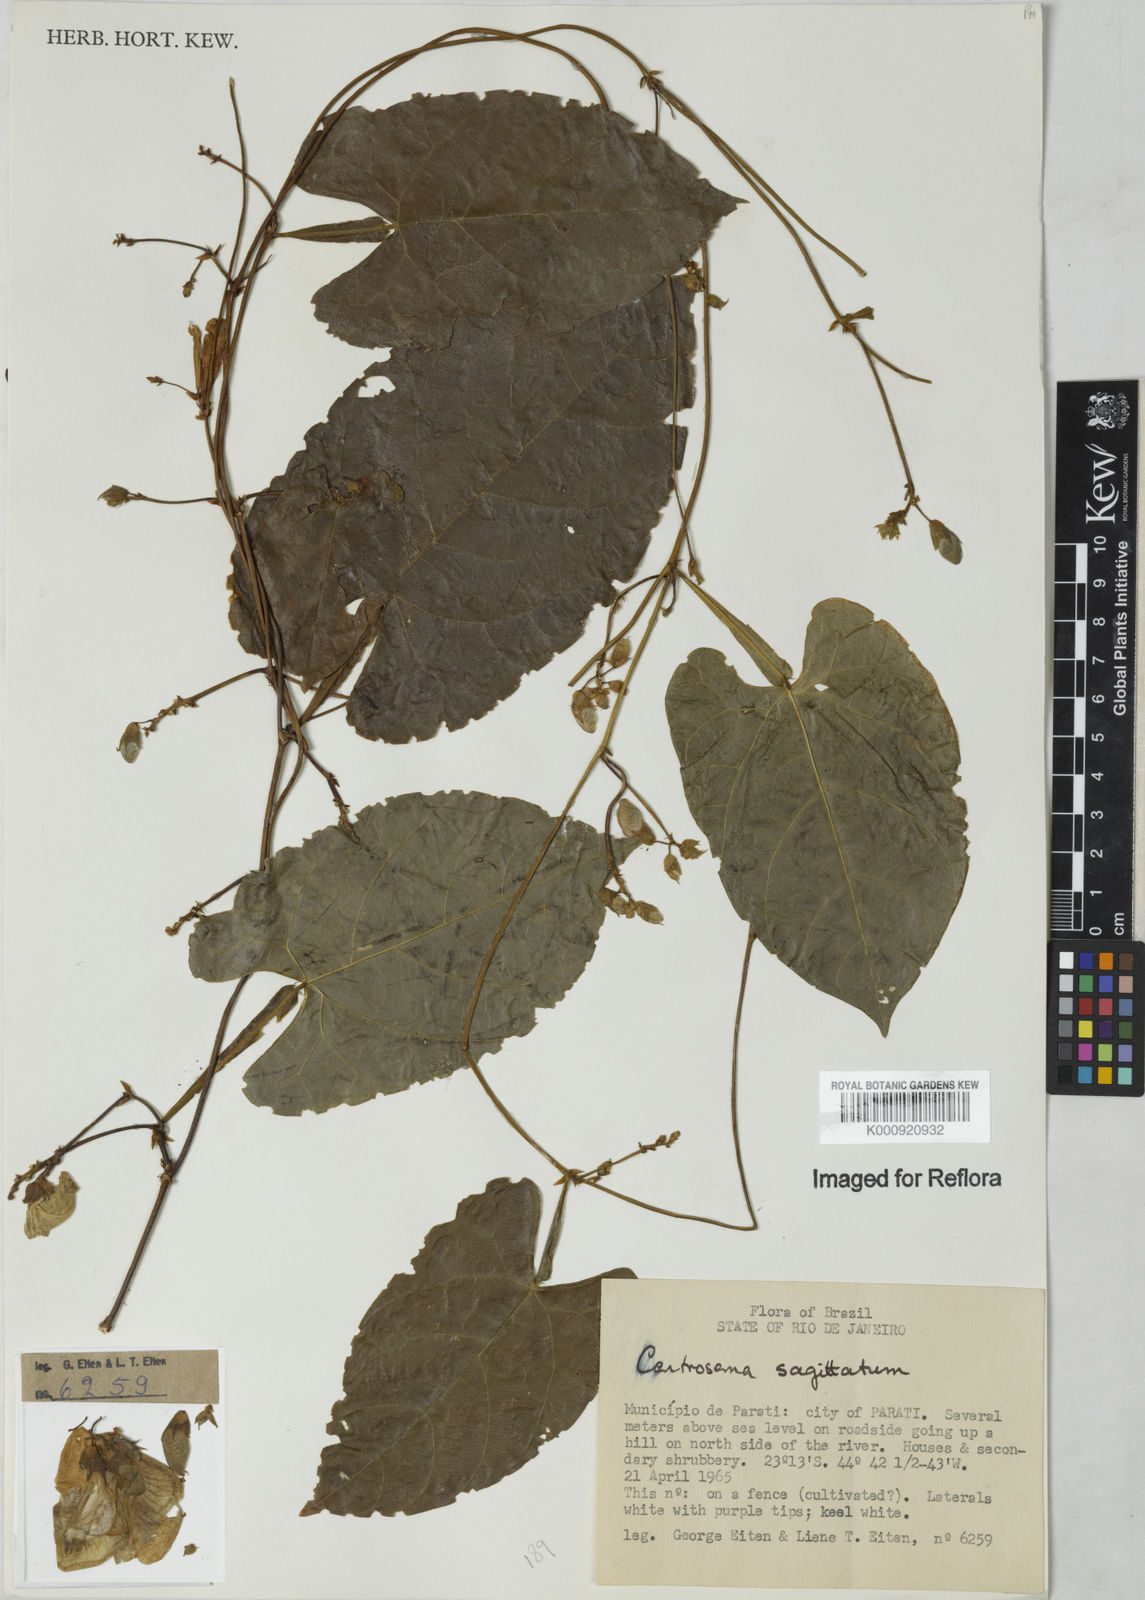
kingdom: Plantae
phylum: Tracheophyta
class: Magnoliopsida
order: Fabales
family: Fabaceae
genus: Centrosema
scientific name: Centrosema sagittatum
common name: Arrowleaf butterfly pea
